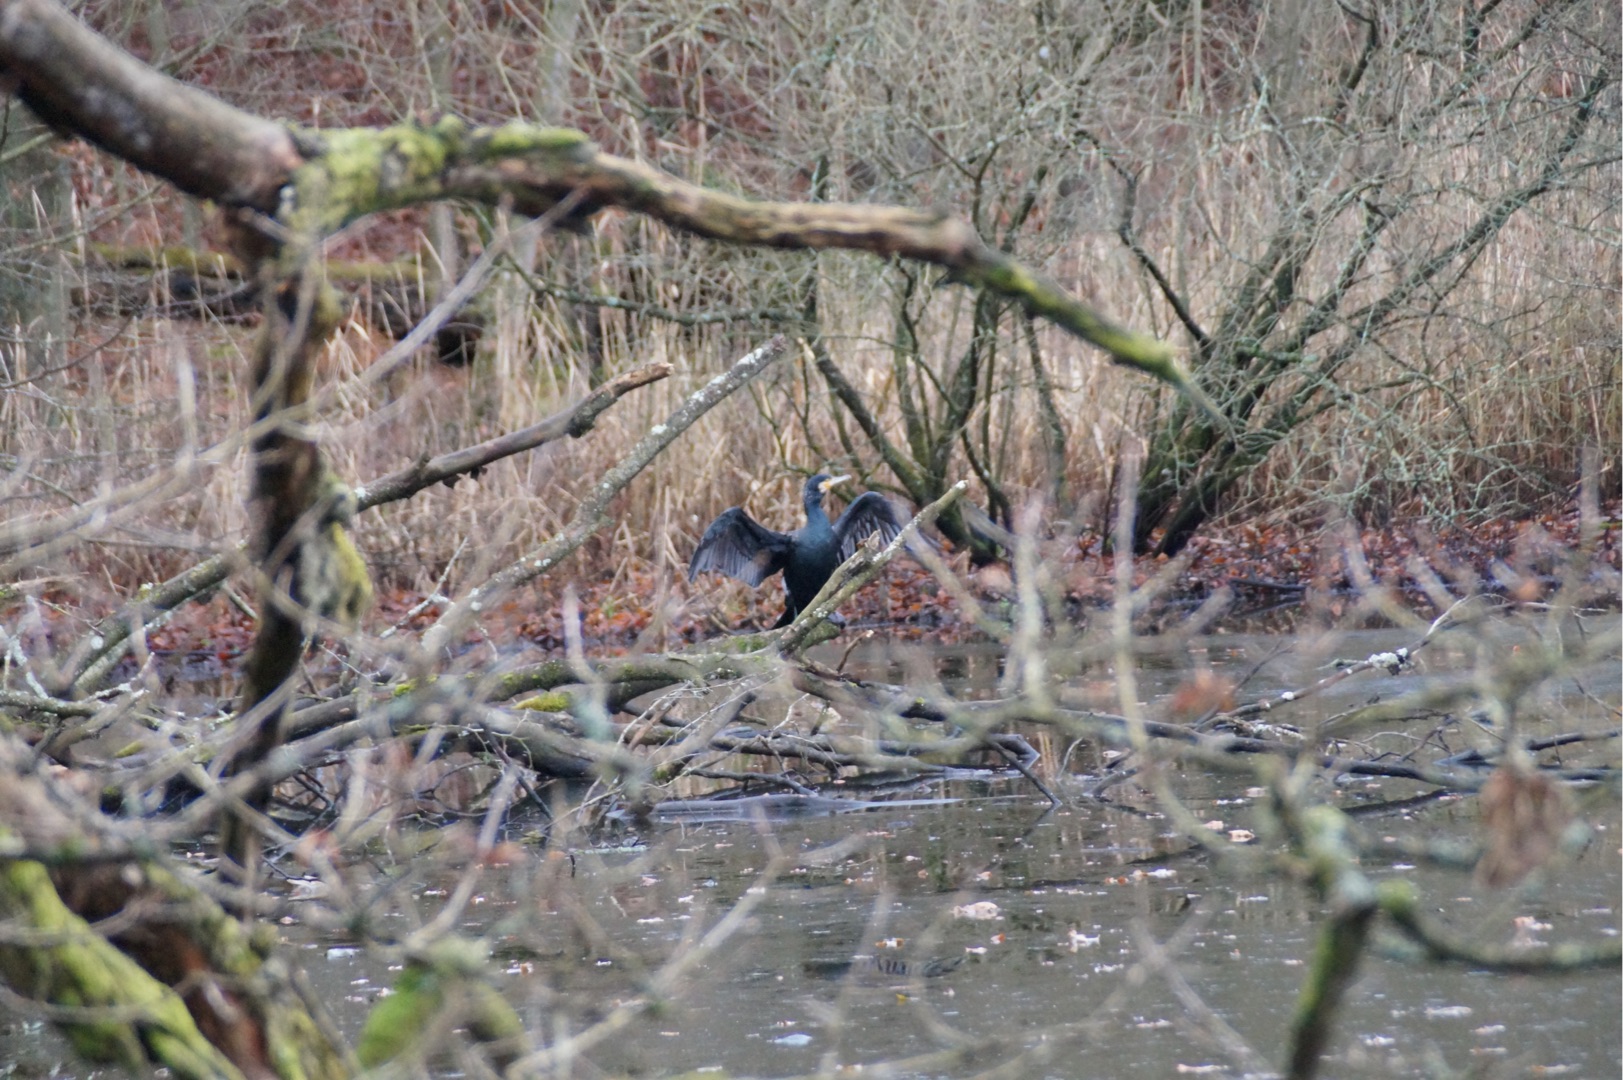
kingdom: Animalia
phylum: Chordata
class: Aves
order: Suliformes
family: Phalacrocoracidae
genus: Phalacrocorax
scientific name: Phalacrocorax carbo
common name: Skarv
